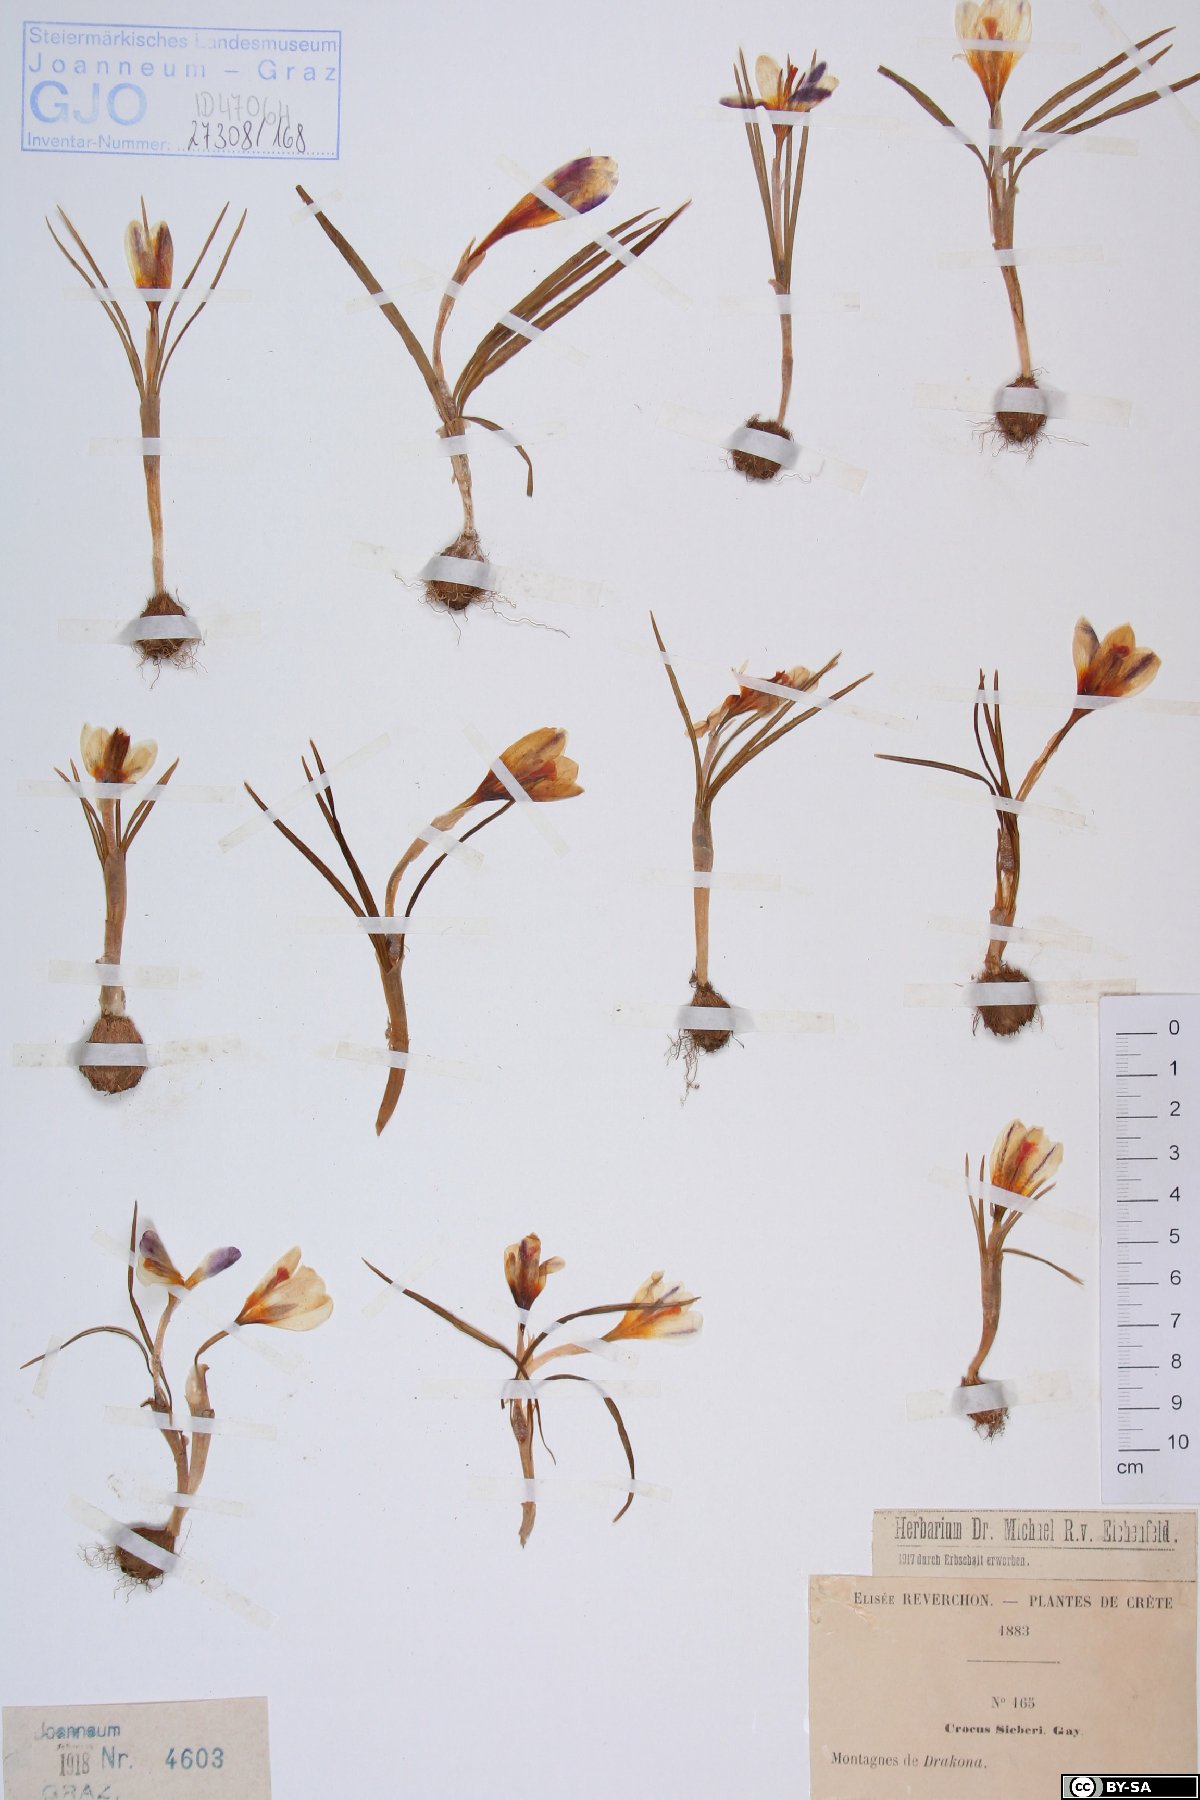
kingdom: Plantae
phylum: Tracheophyta
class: Liliopsida
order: Asparagales
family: Iridaceae
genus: Crocus
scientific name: Crocus sieberi
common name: Sieber's crocus
